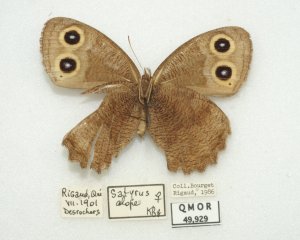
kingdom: Animalia
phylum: Arthropoda
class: Insecta
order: Lepidoptera
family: Nymphalidae
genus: Cercyonis
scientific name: Cercyonis pegala
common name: Common Wood-Nymph
